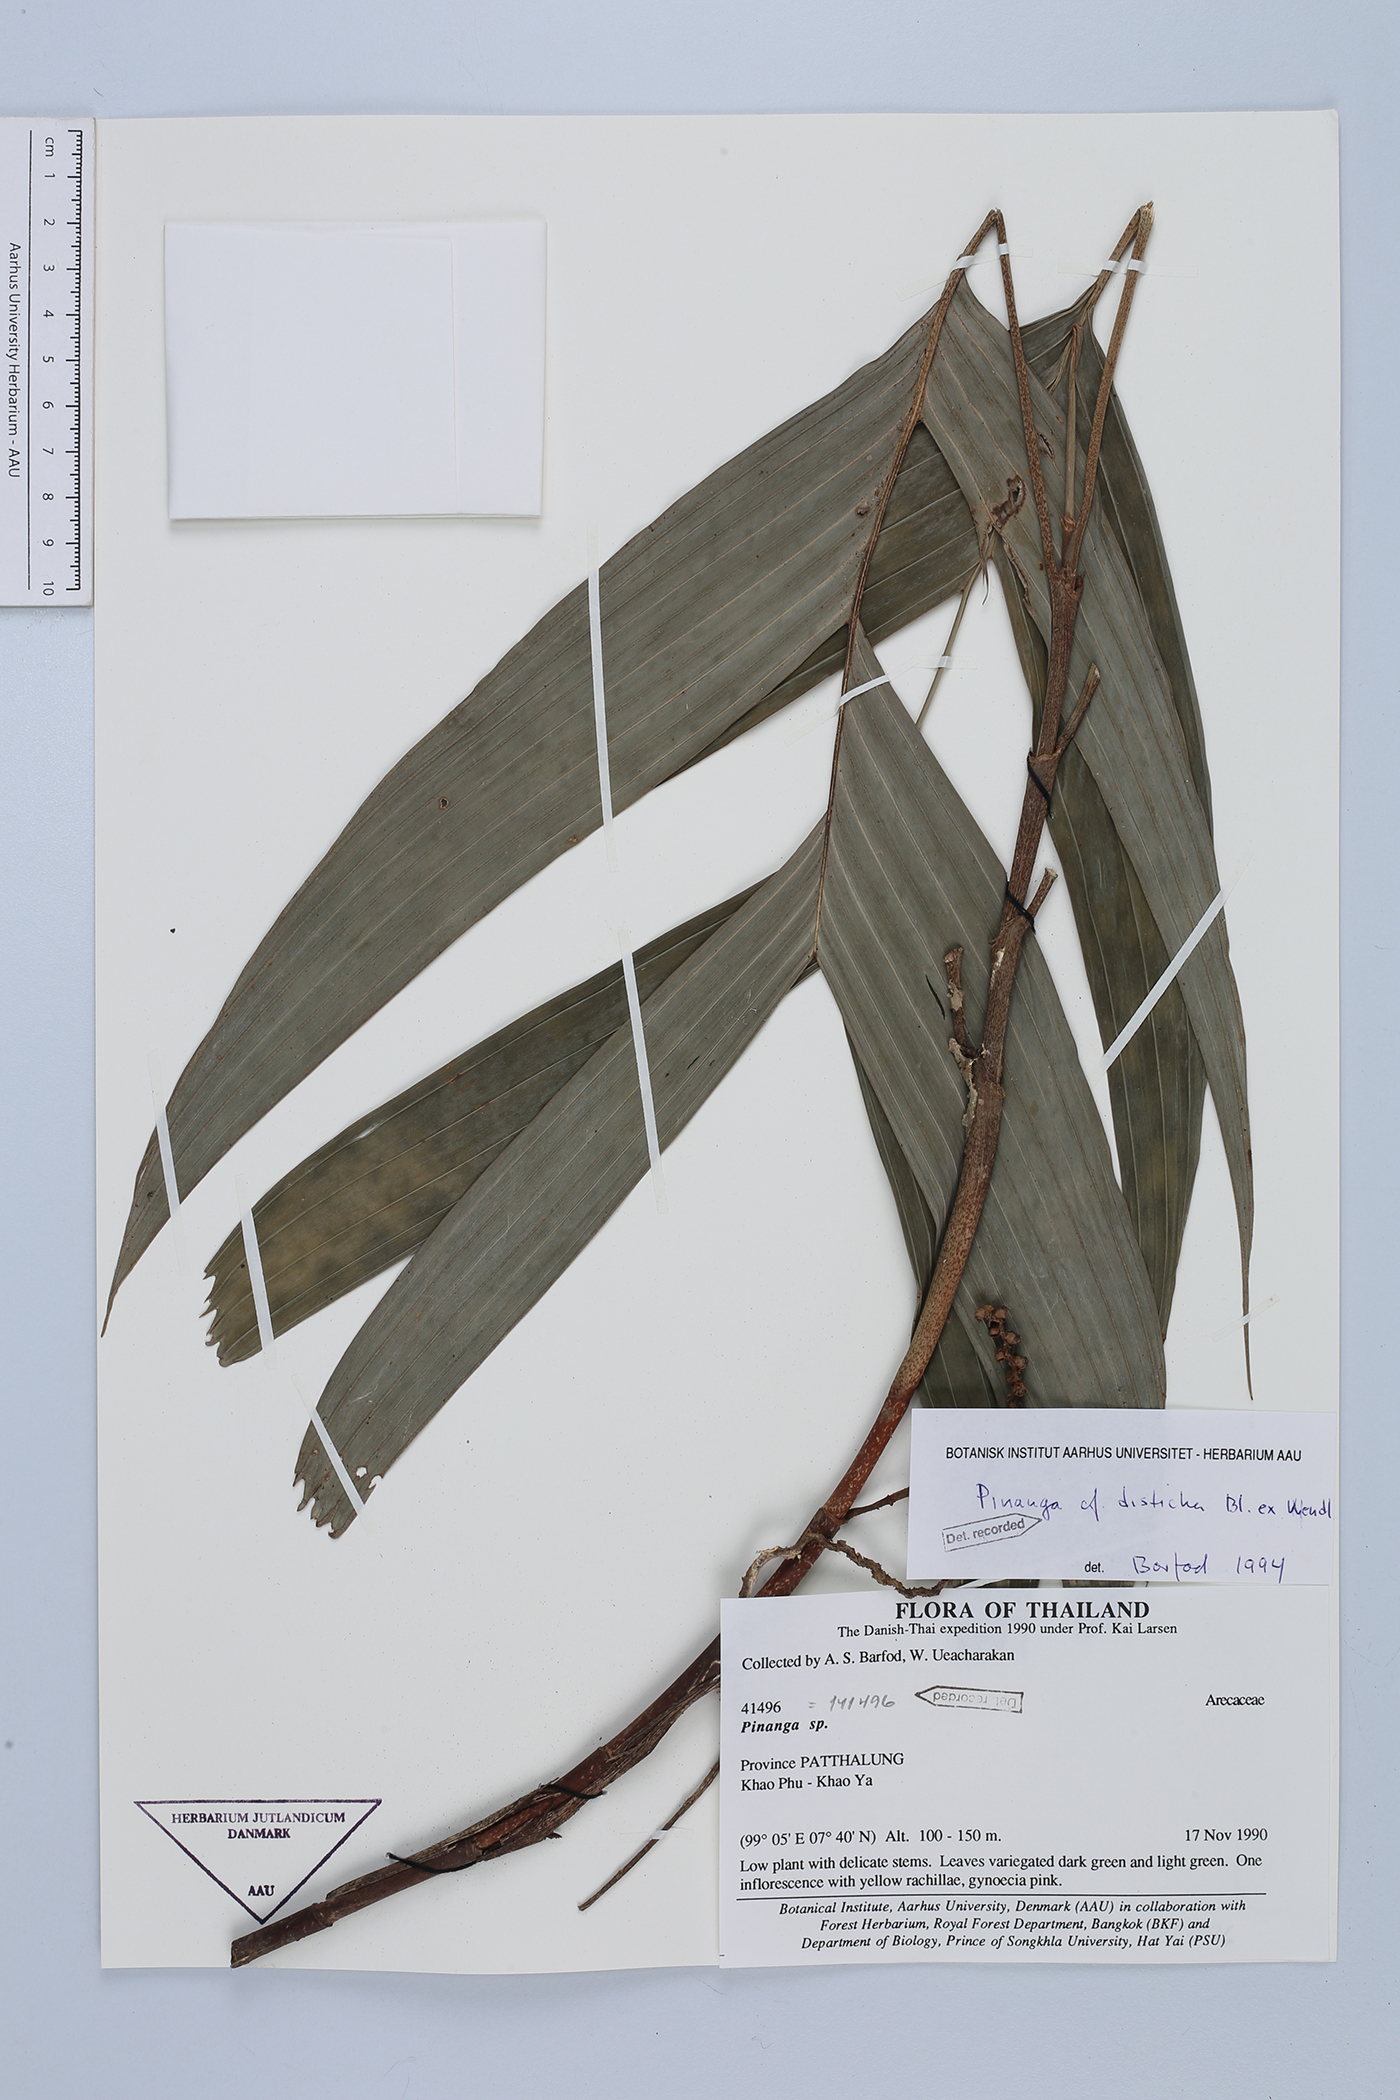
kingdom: Plantae
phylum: Tracheophyta
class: Liliopsida
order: Arecales
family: Arecaceae
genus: Pinanga
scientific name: Pinanga disticha
